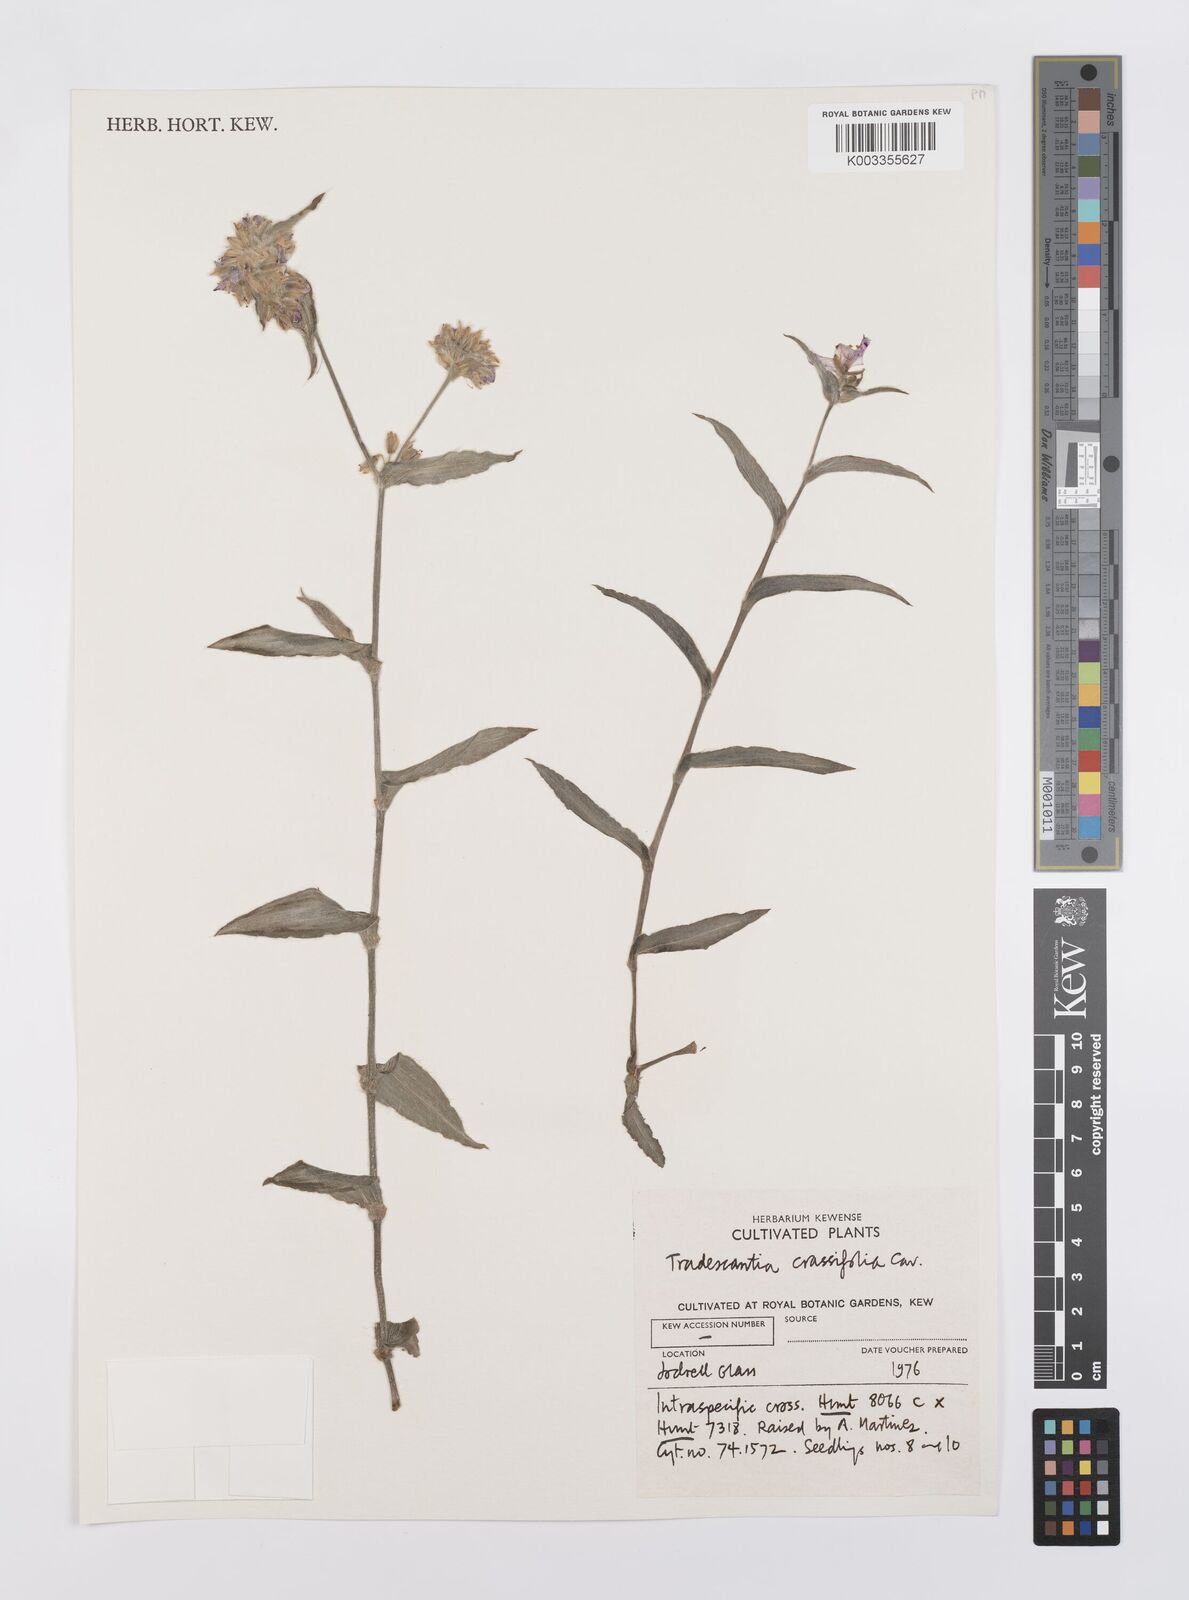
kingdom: Plantae
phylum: Tracheophyta
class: Liliopsida
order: Commelinales
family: Commelinaceae
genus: Tradescantia
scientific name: Tradescantia
